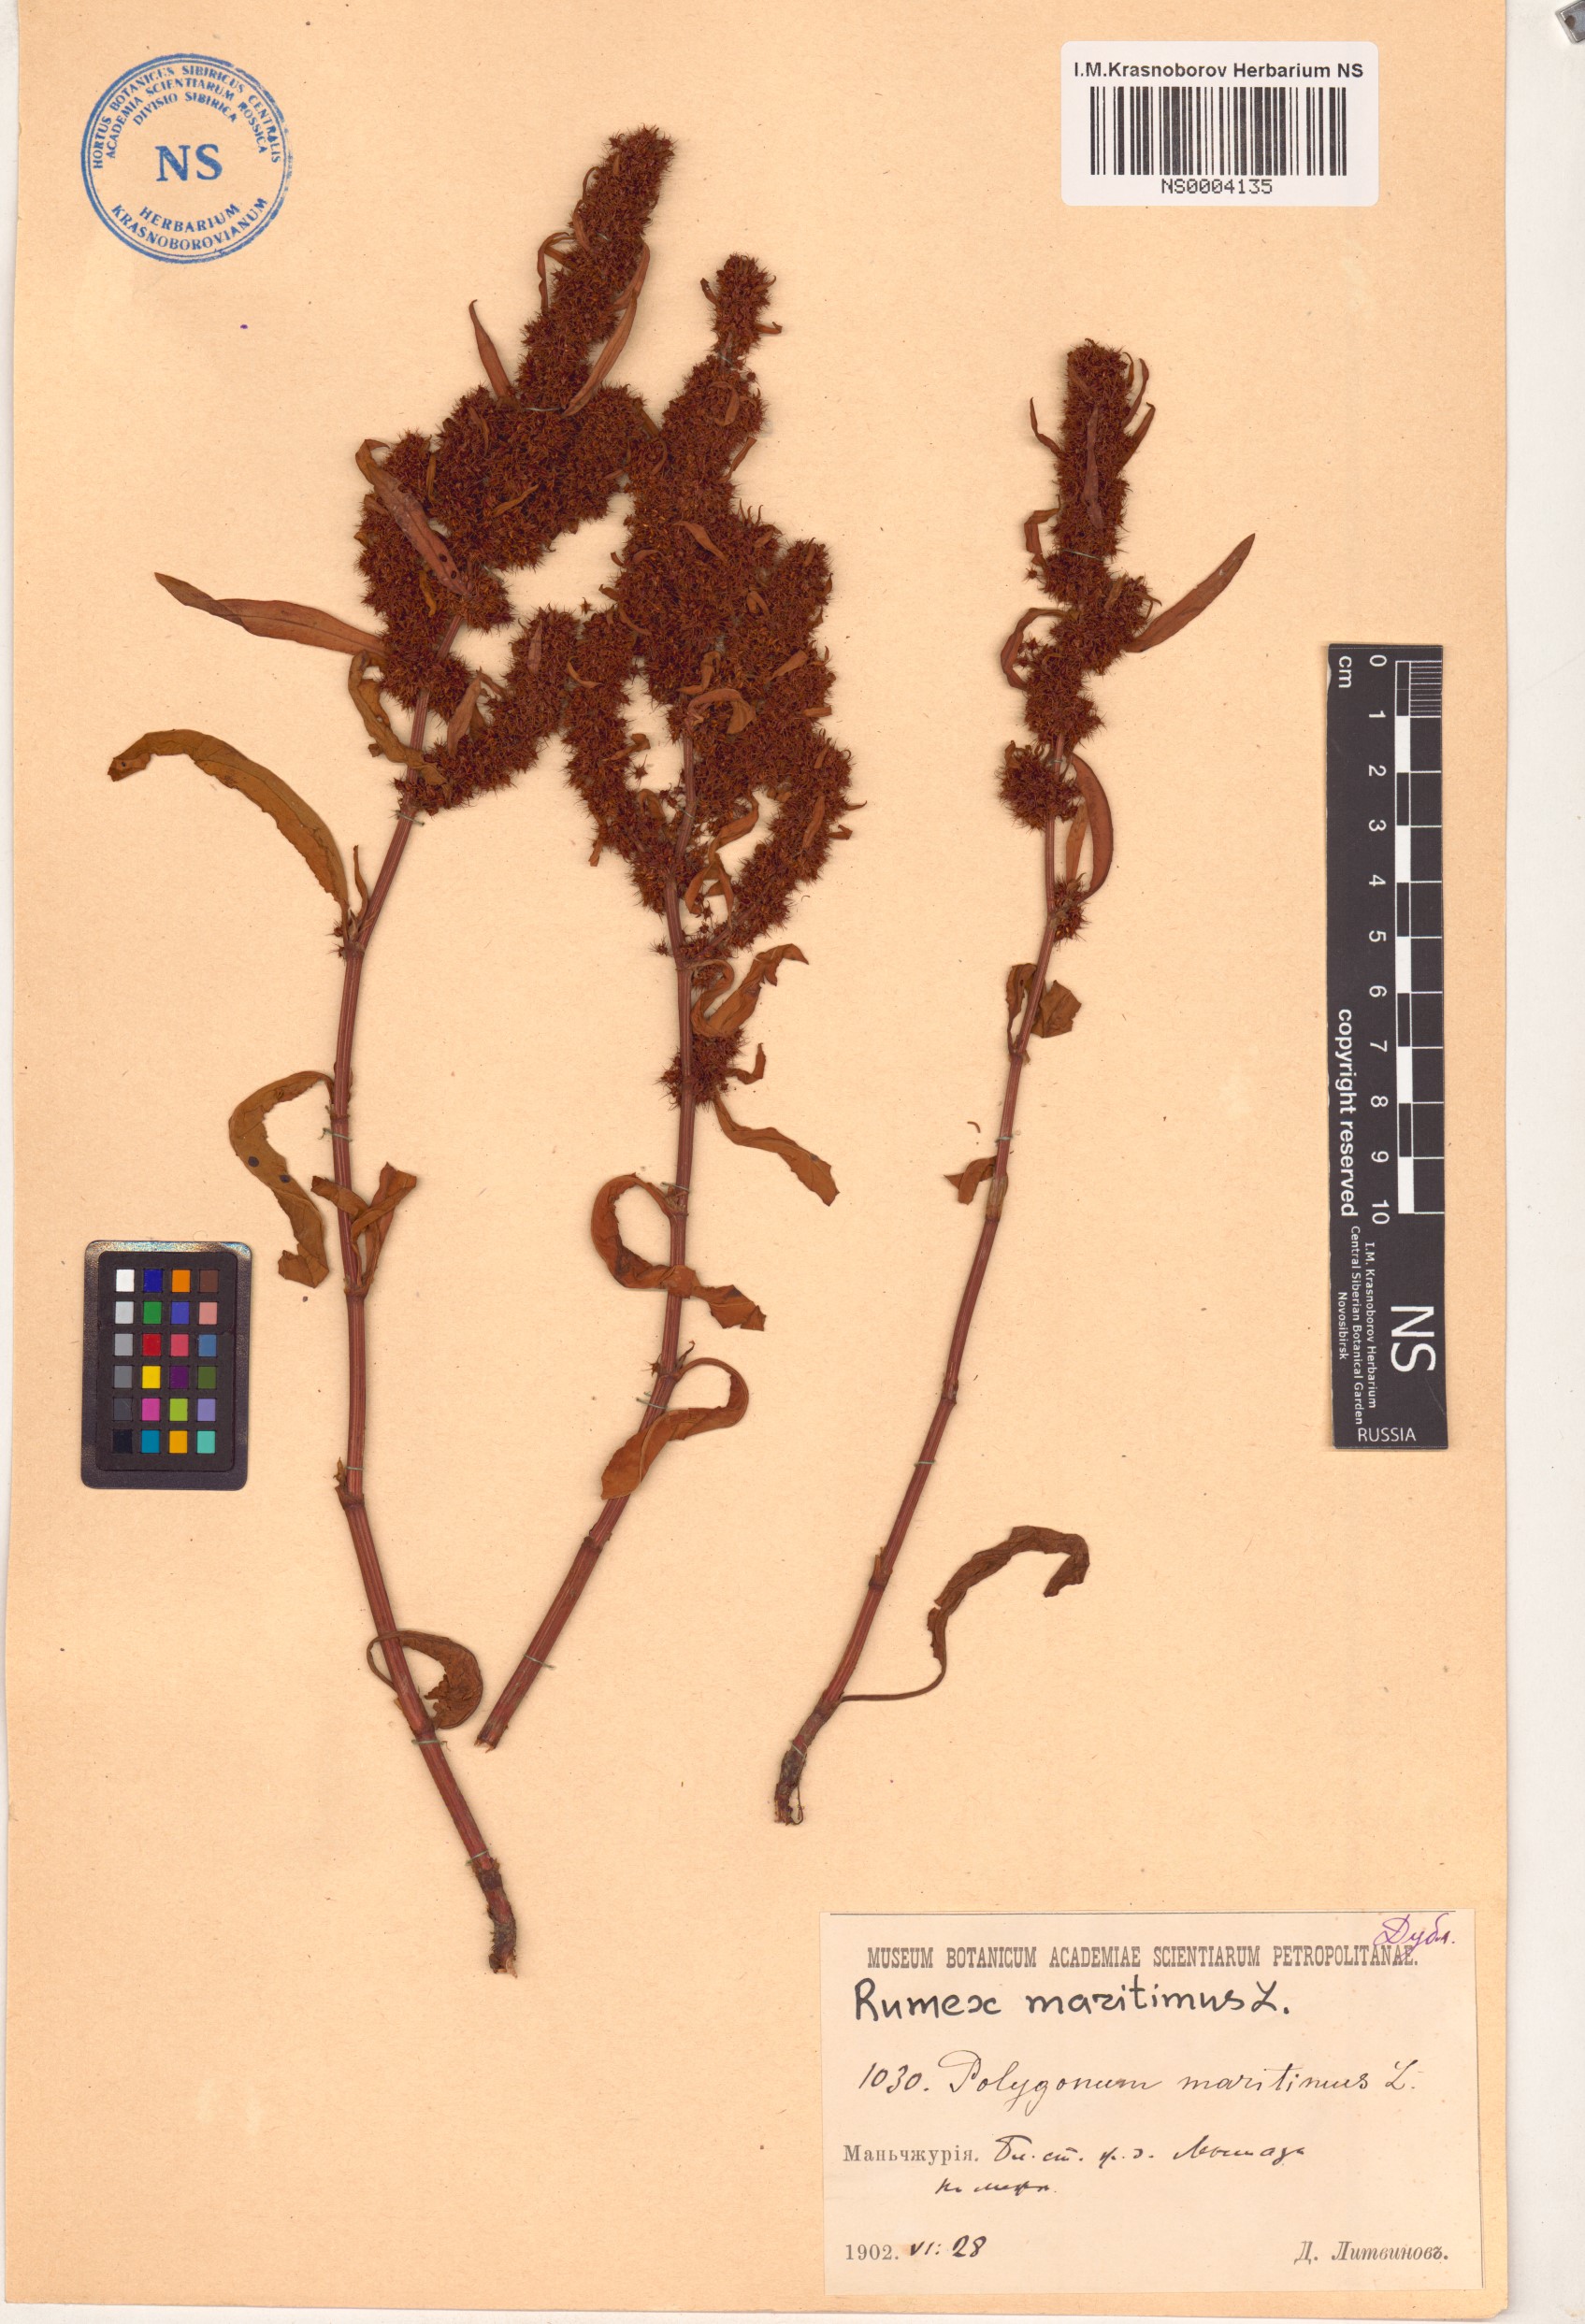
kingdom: Plantae
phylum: Tracheophyta
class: Magnoliopsida
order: Caryophyllales
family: Polygonaceae
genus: Rumex
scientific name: Rumex maritimus
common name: Golden dock
